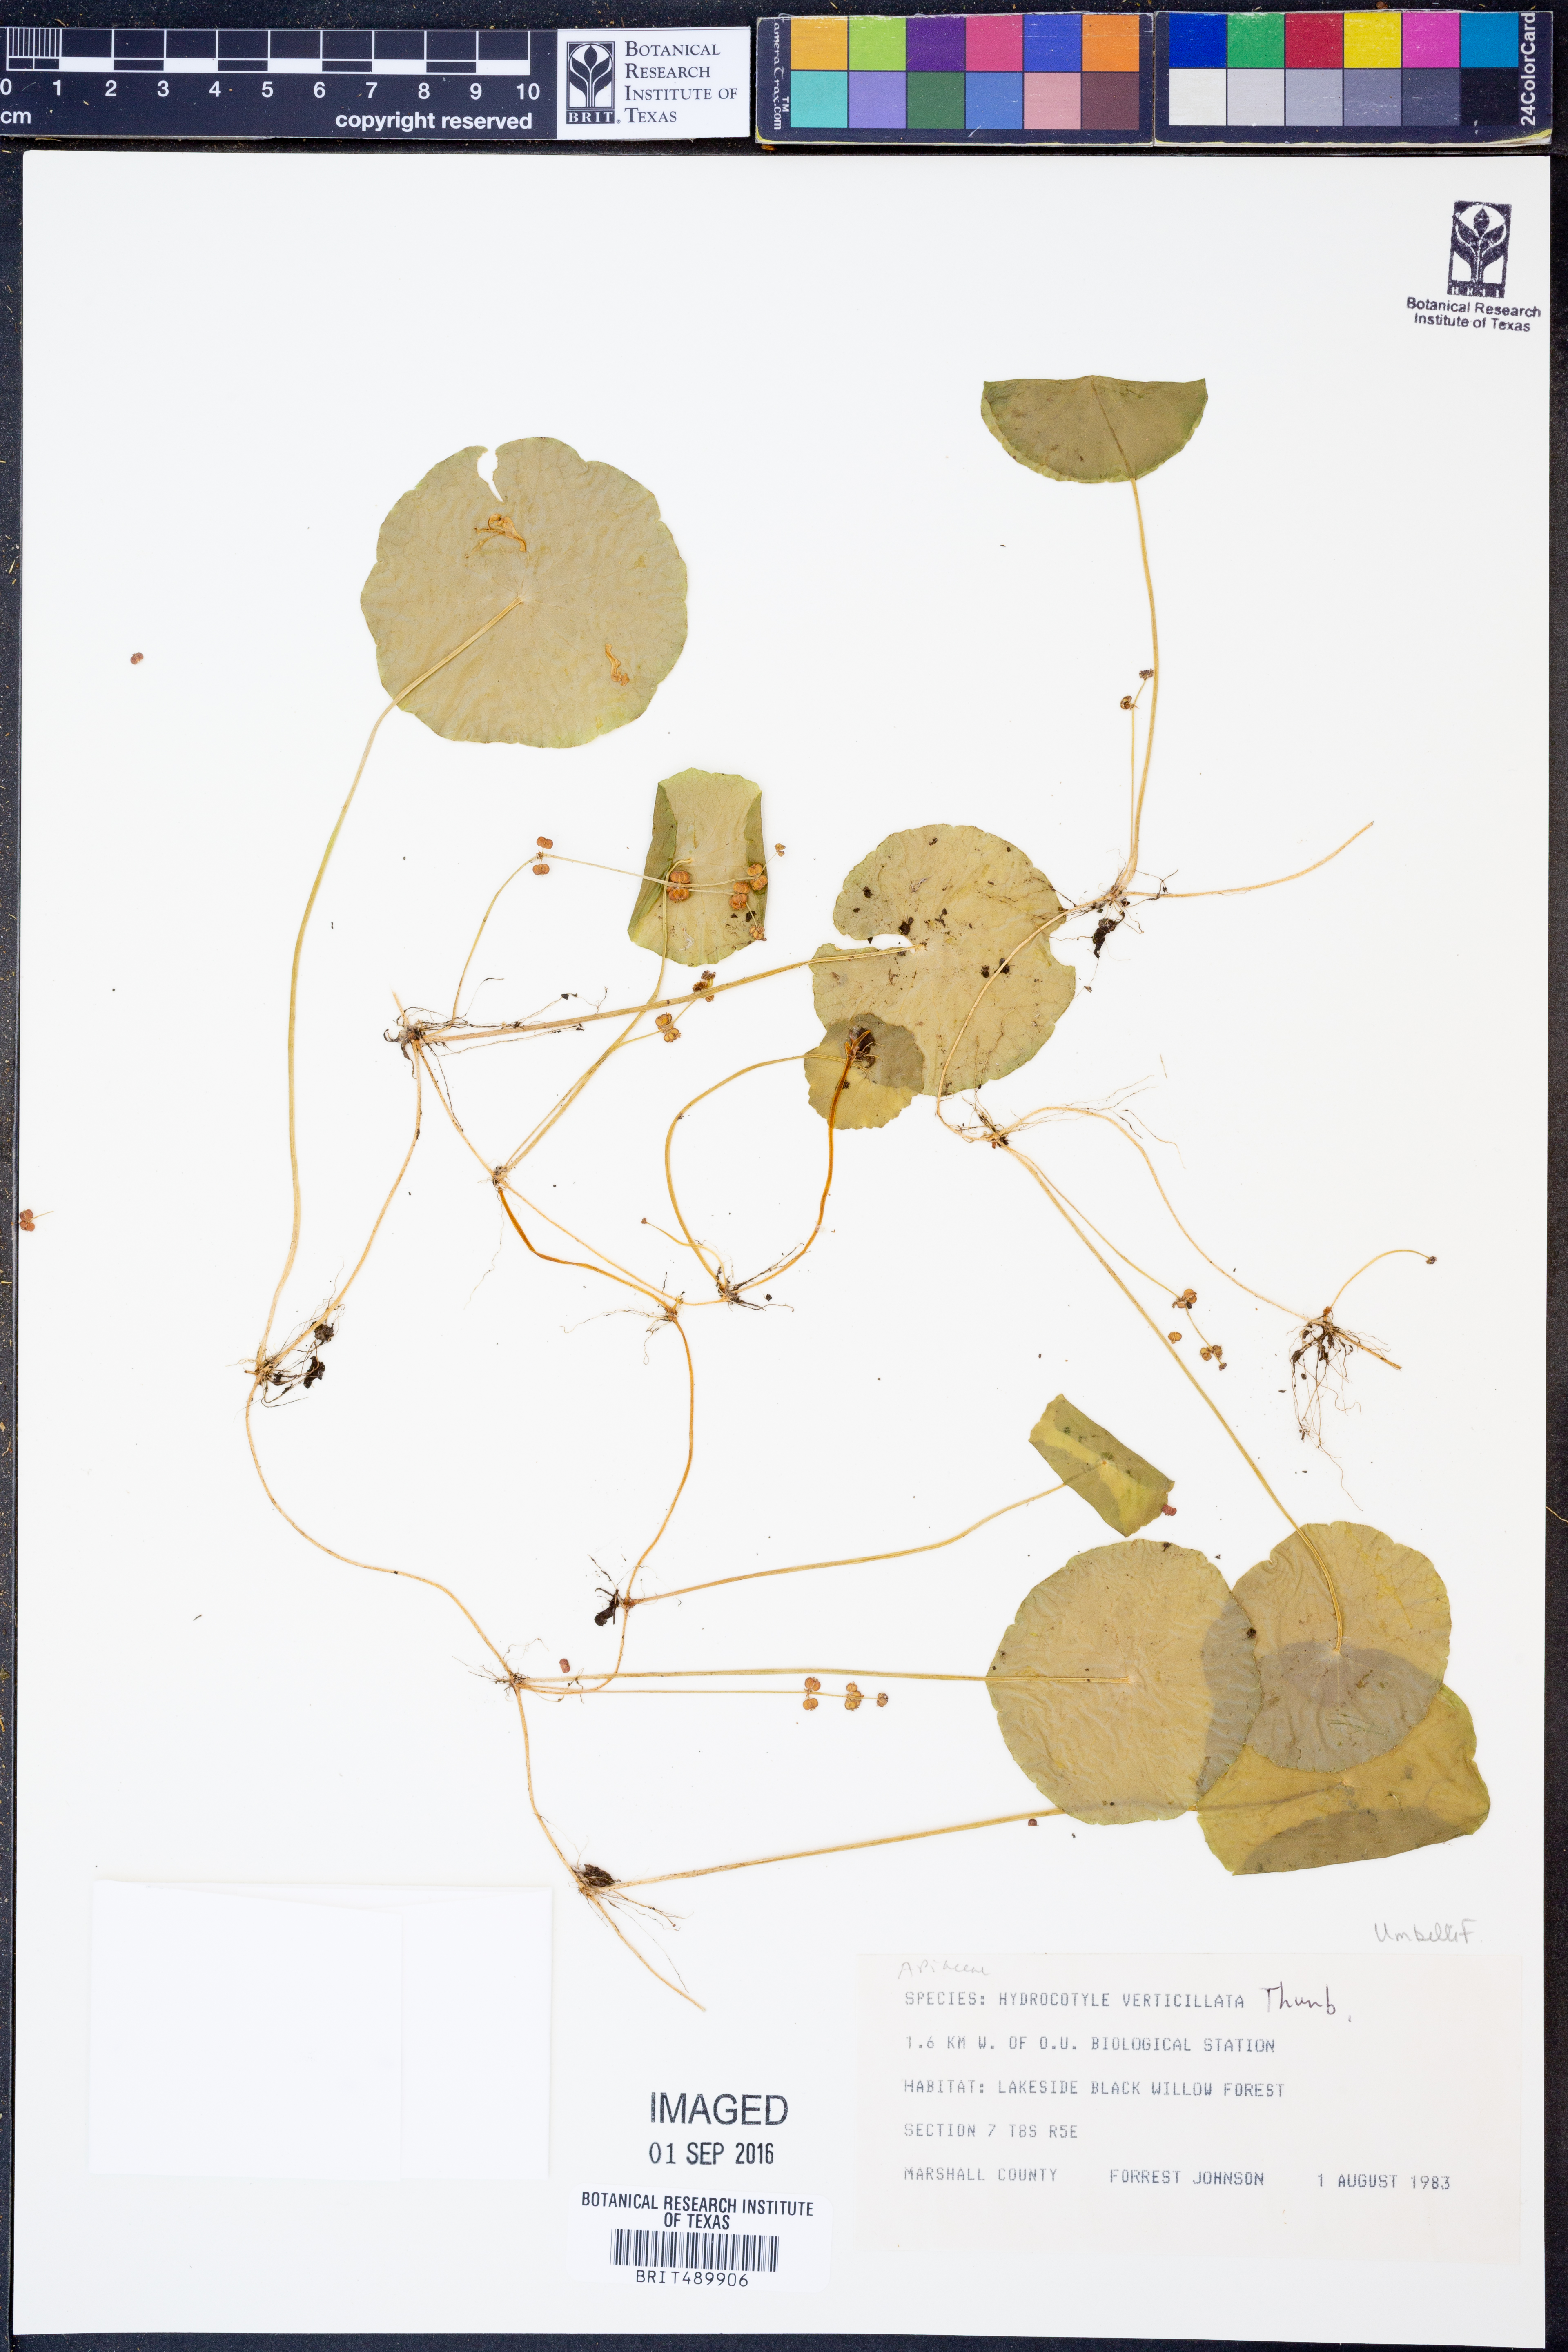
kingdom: Plantae
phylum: Tracheophyta
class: Magnoliopsida
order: Apiales
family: Araliaceae
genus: Hydrocotyle
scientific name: Hydrocotyle verticillata
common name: Whorled marshpennywort
